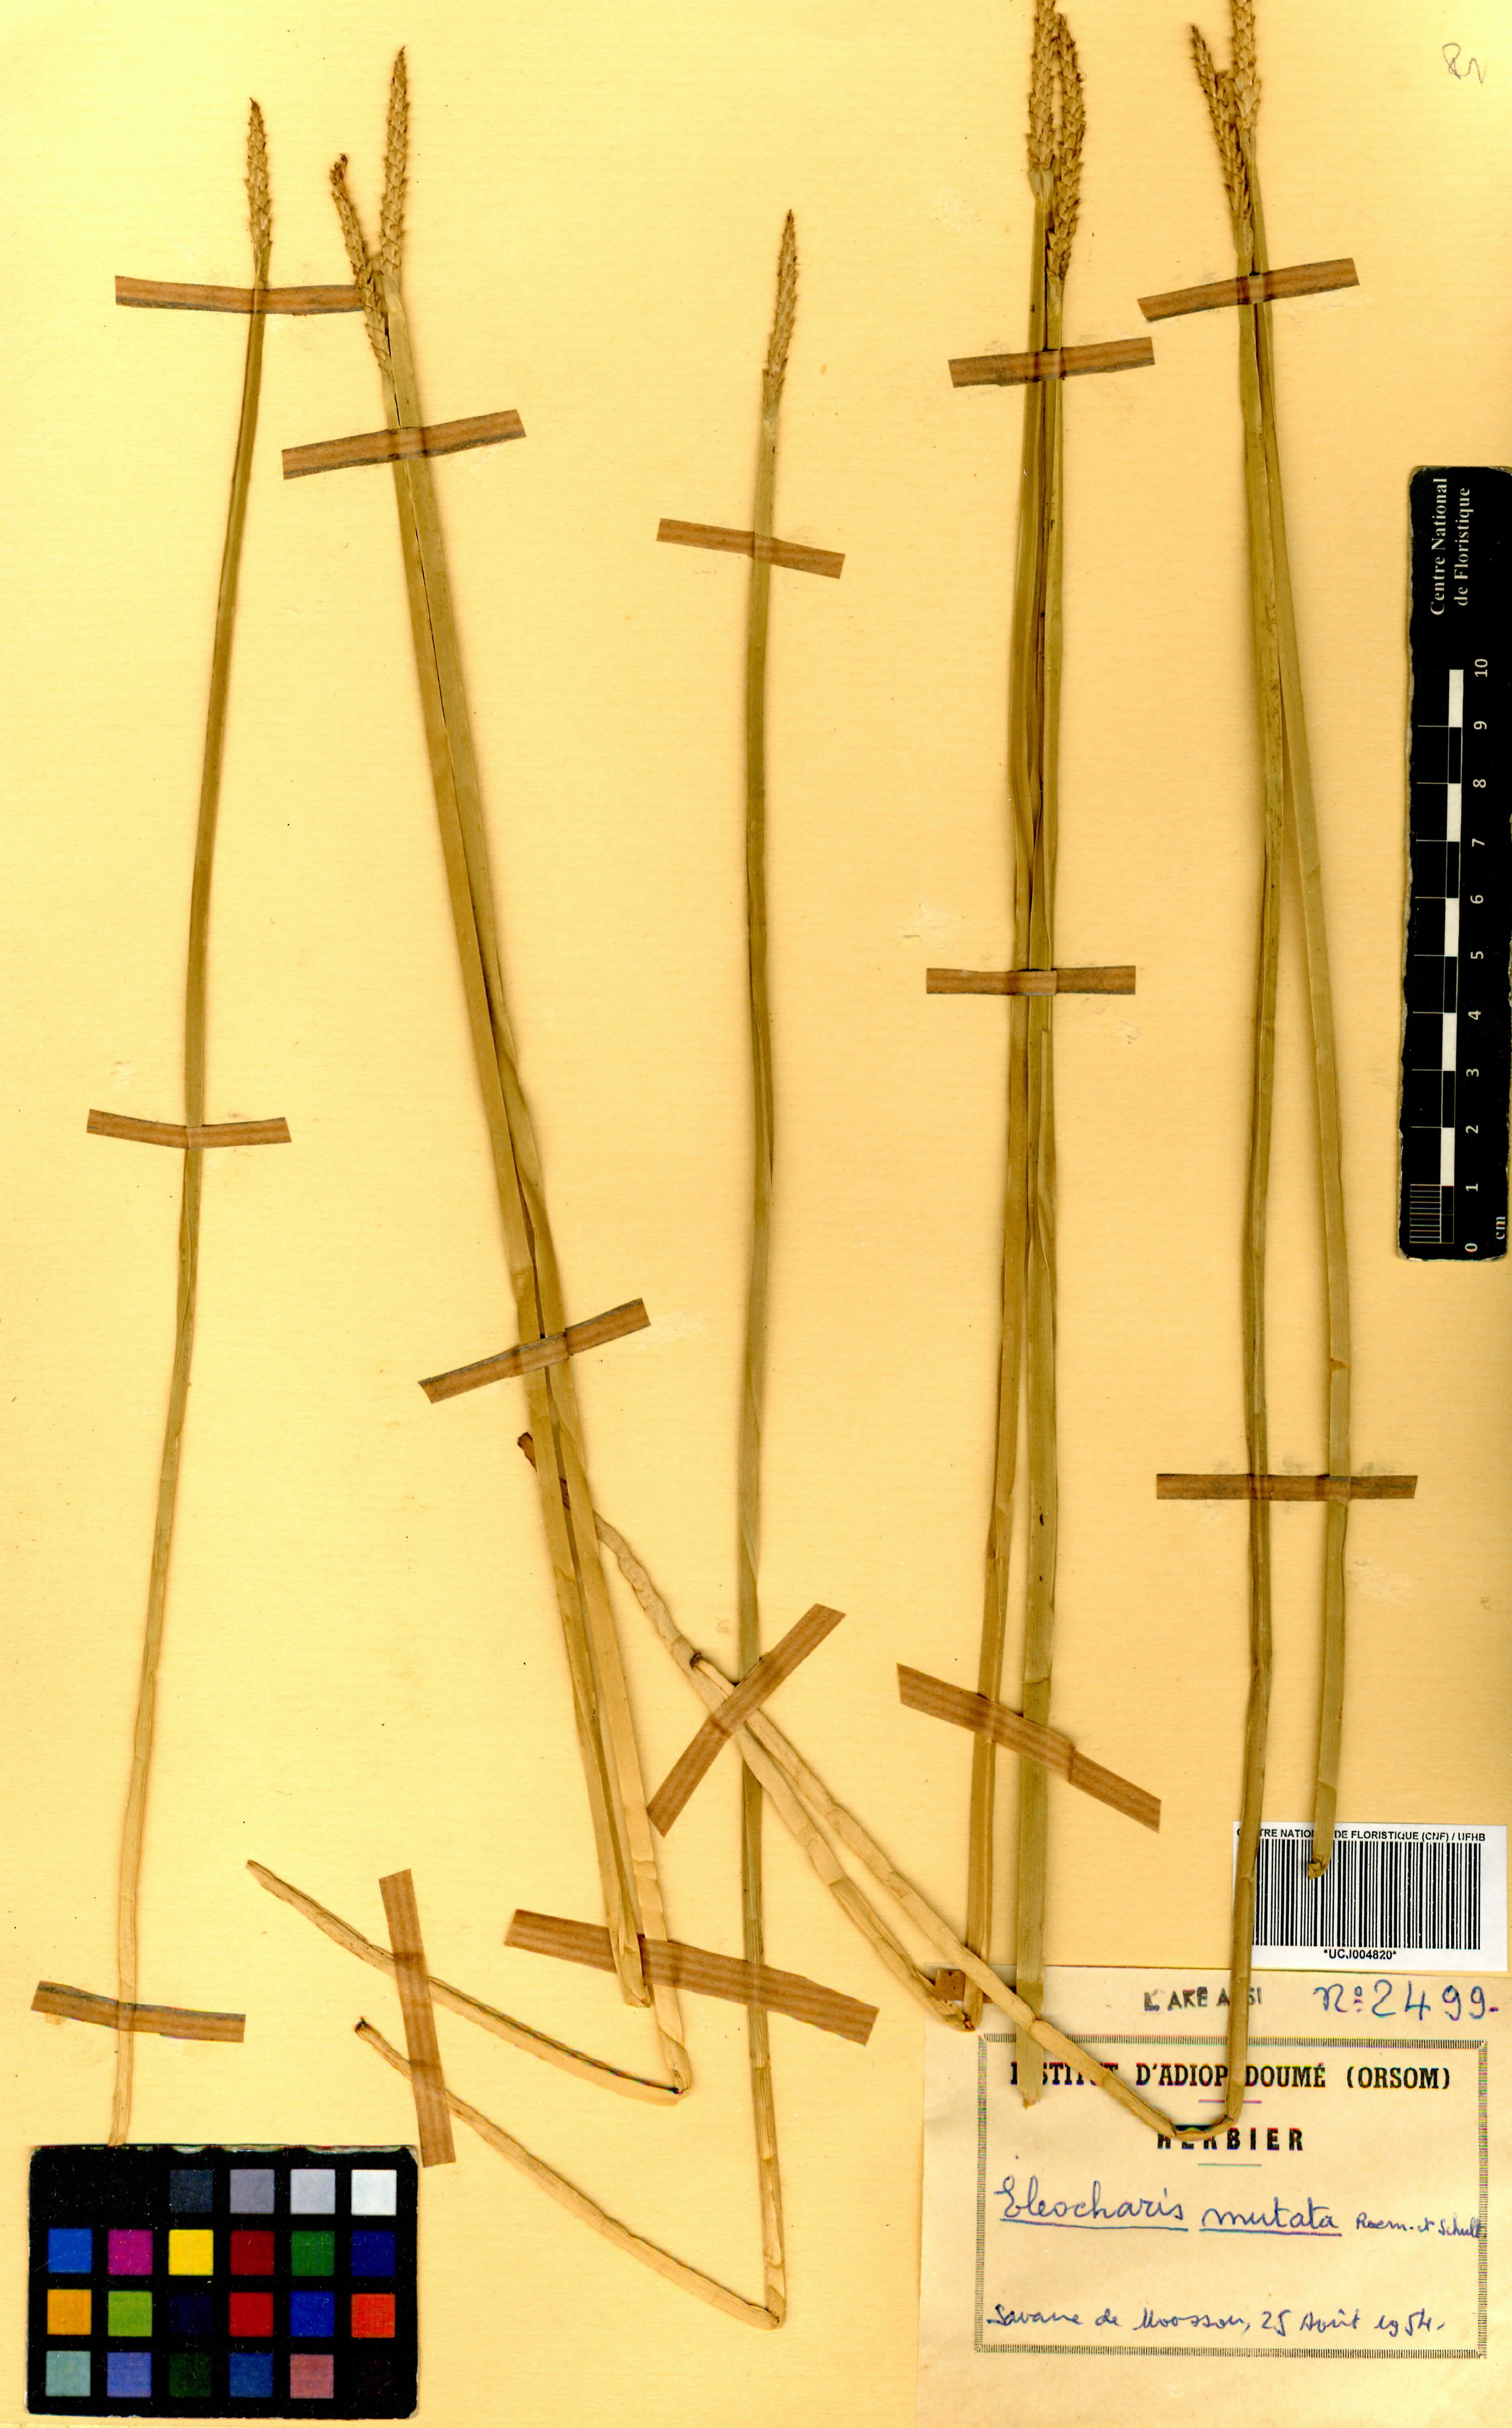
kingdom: Plantae
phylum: Tracheophyta
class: Liliopsida
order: Poales
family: Cyperaceae
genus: Eleocharis
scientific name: Eleocharis mutata
